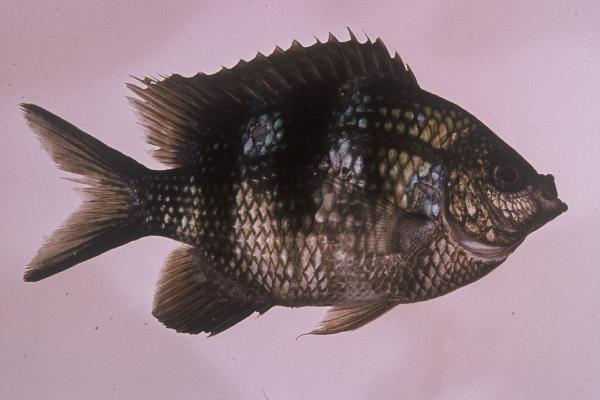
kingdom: Animalia
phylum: Chordata
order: Perciformes
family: Pomacentridae
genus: Abudefduf
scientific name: Abudefduf sexfasciatus
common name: Scissortail sergeant
